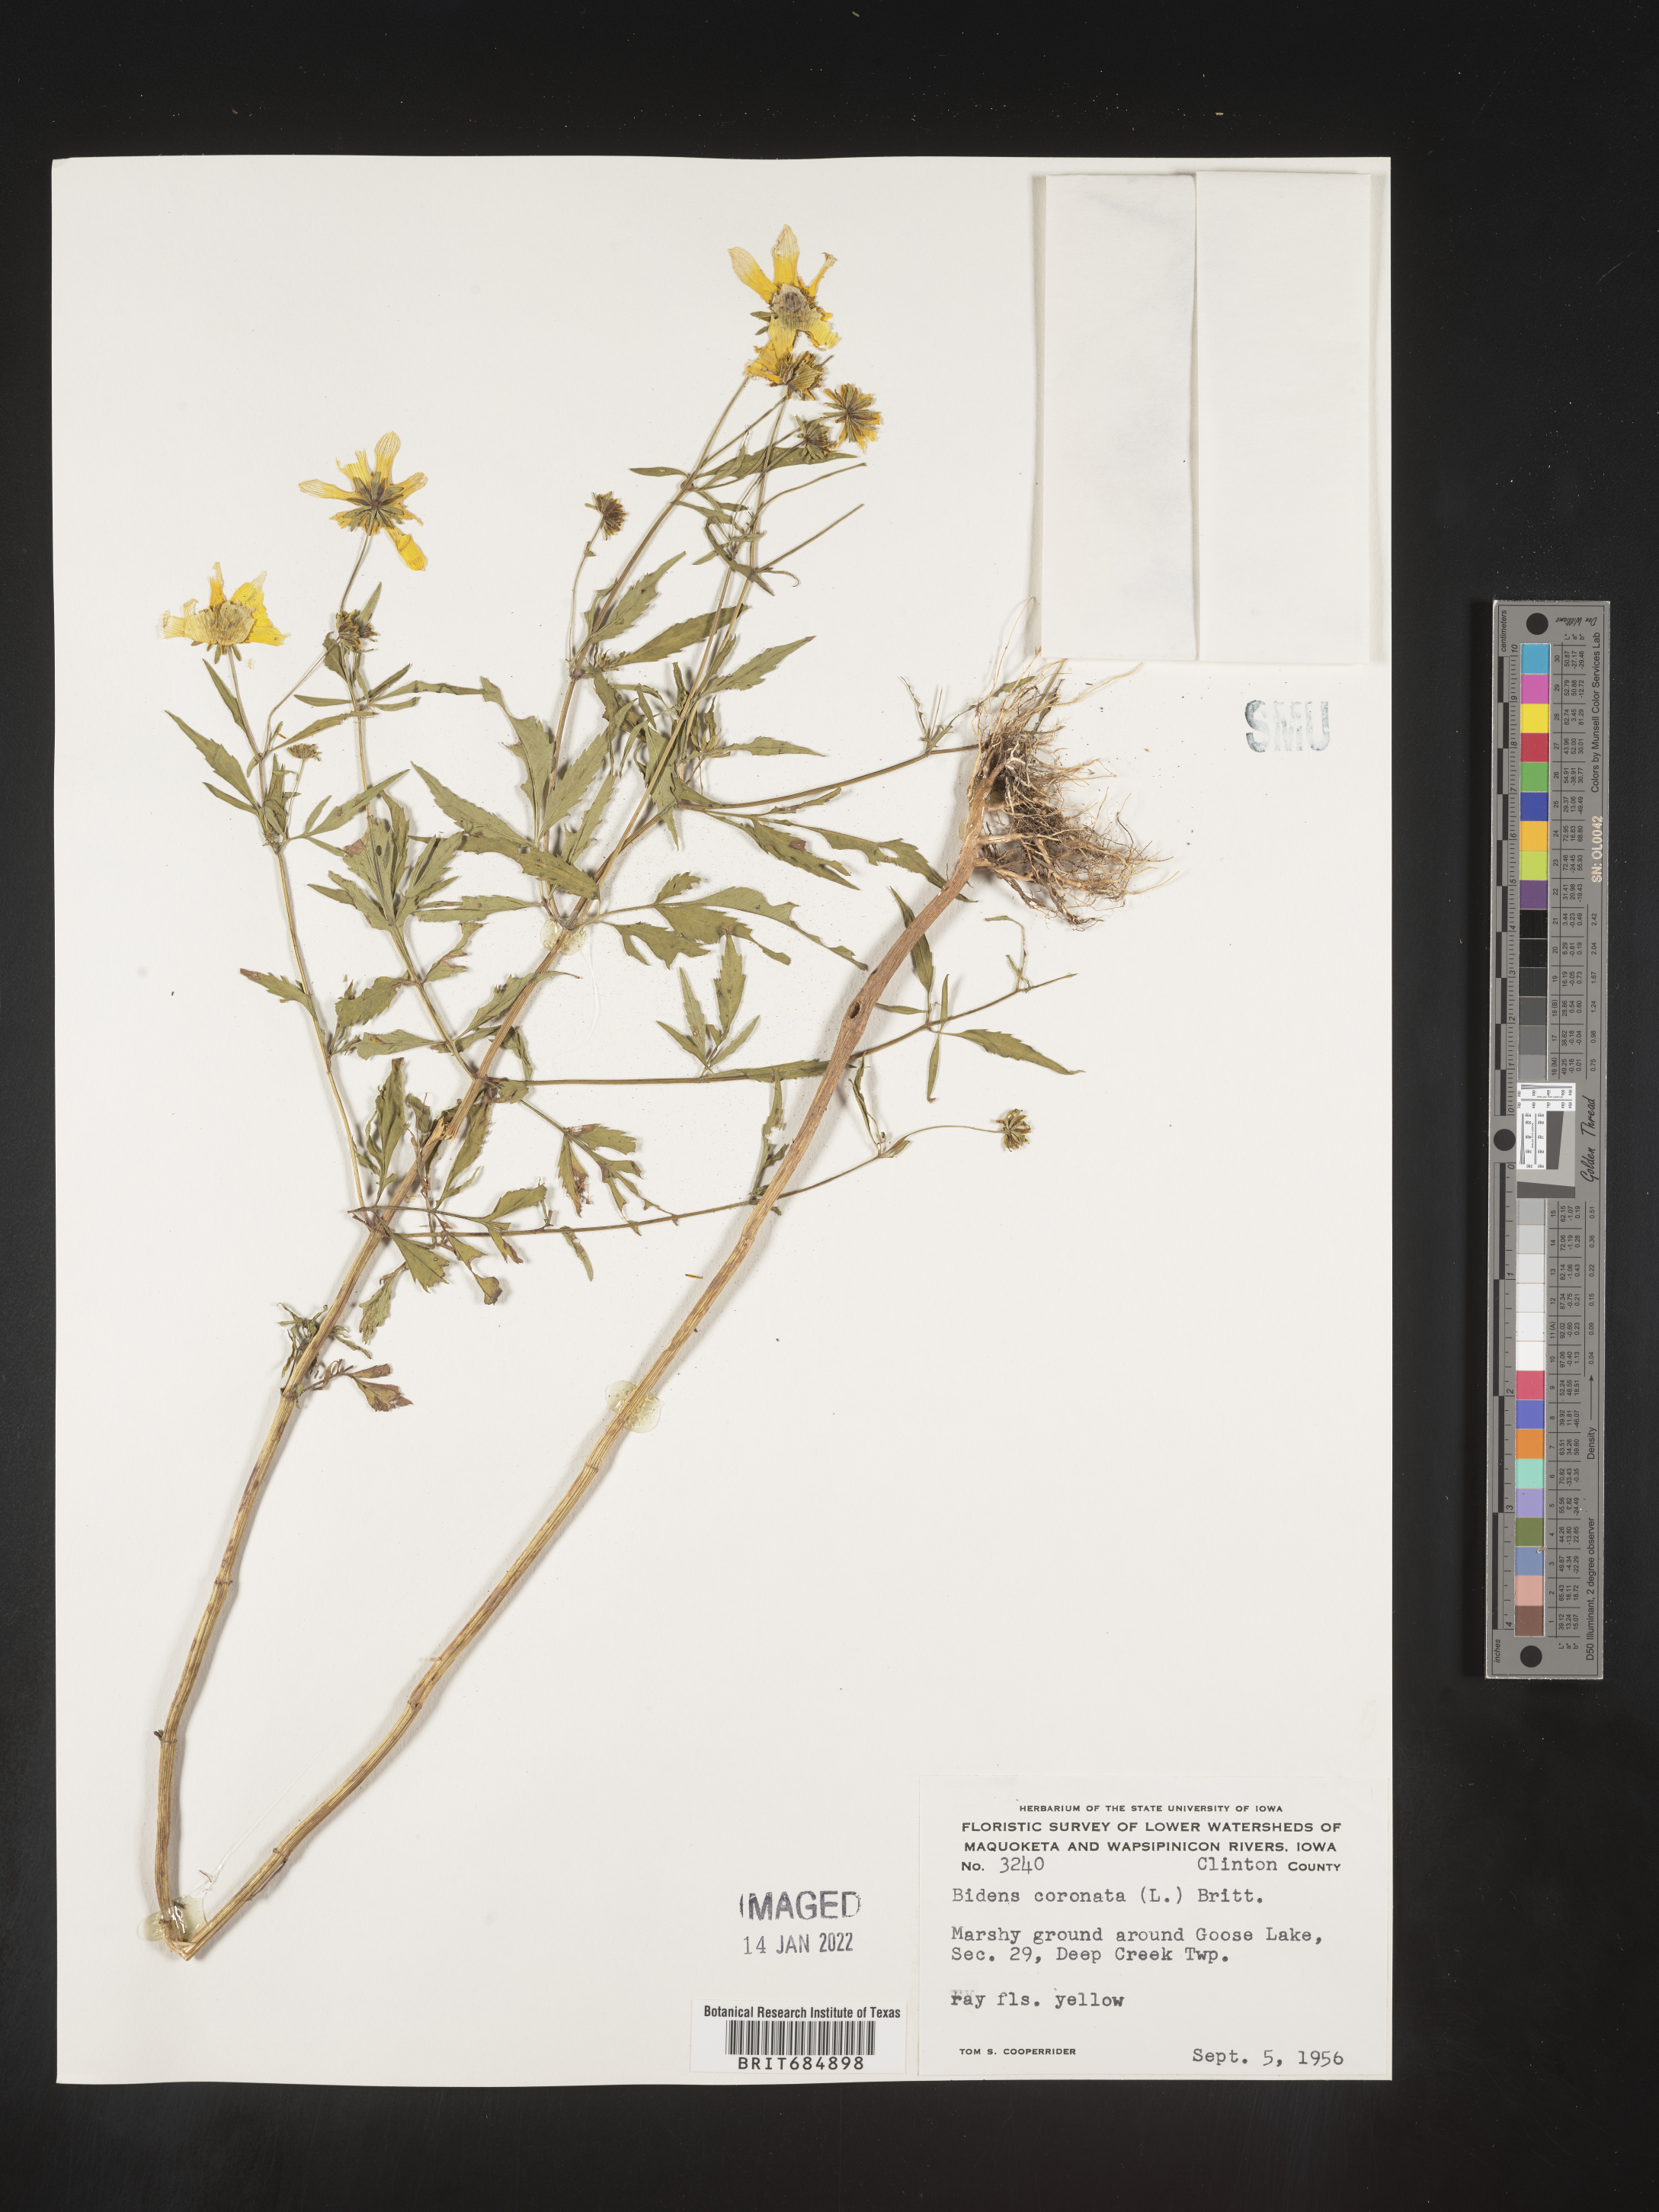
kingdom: Plantae
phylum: Tracheophyta
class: Magnoliopsida
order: Asterales
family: Asteraceae
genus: Bidens
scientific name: Bidens trichosperma
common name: Crowned beggarticks
